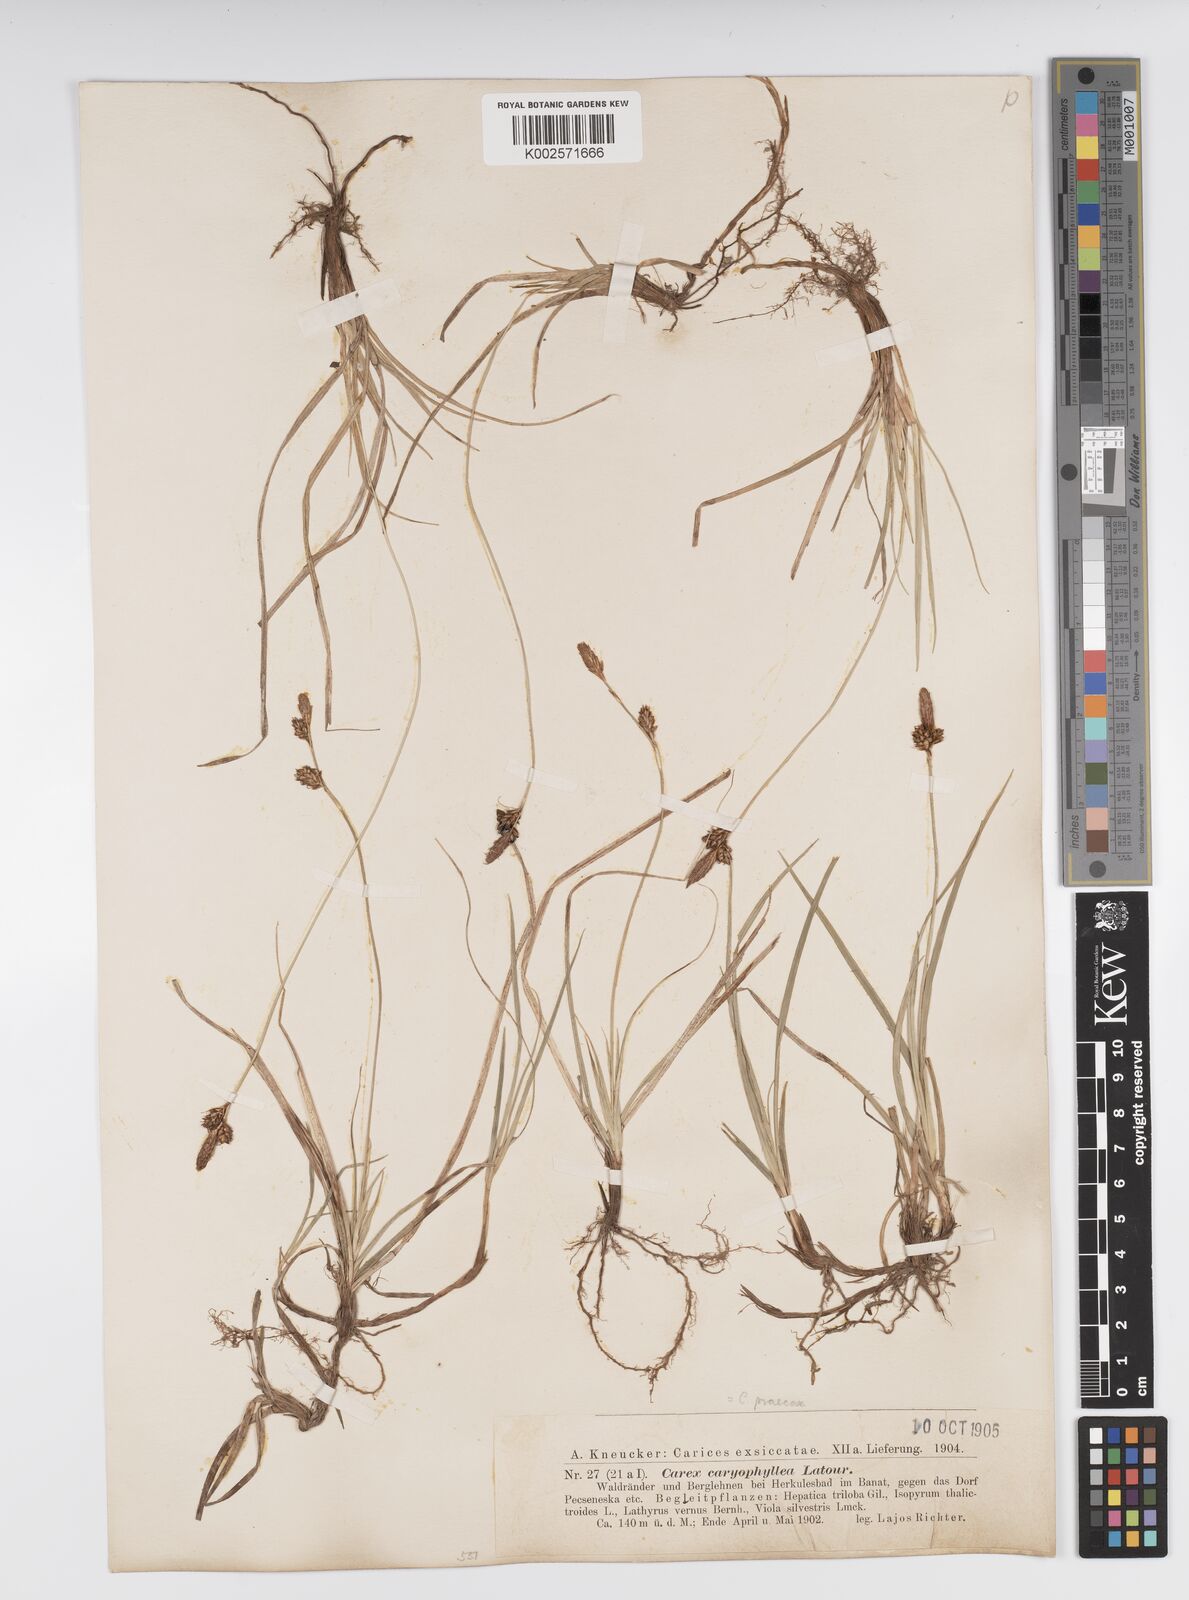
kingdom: Plantae
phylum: Tracheophyta
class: Liliopsida
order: Poales
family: Cyperaceae
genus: Carex
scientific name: Carex caryophyllea
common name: Spring sedge
